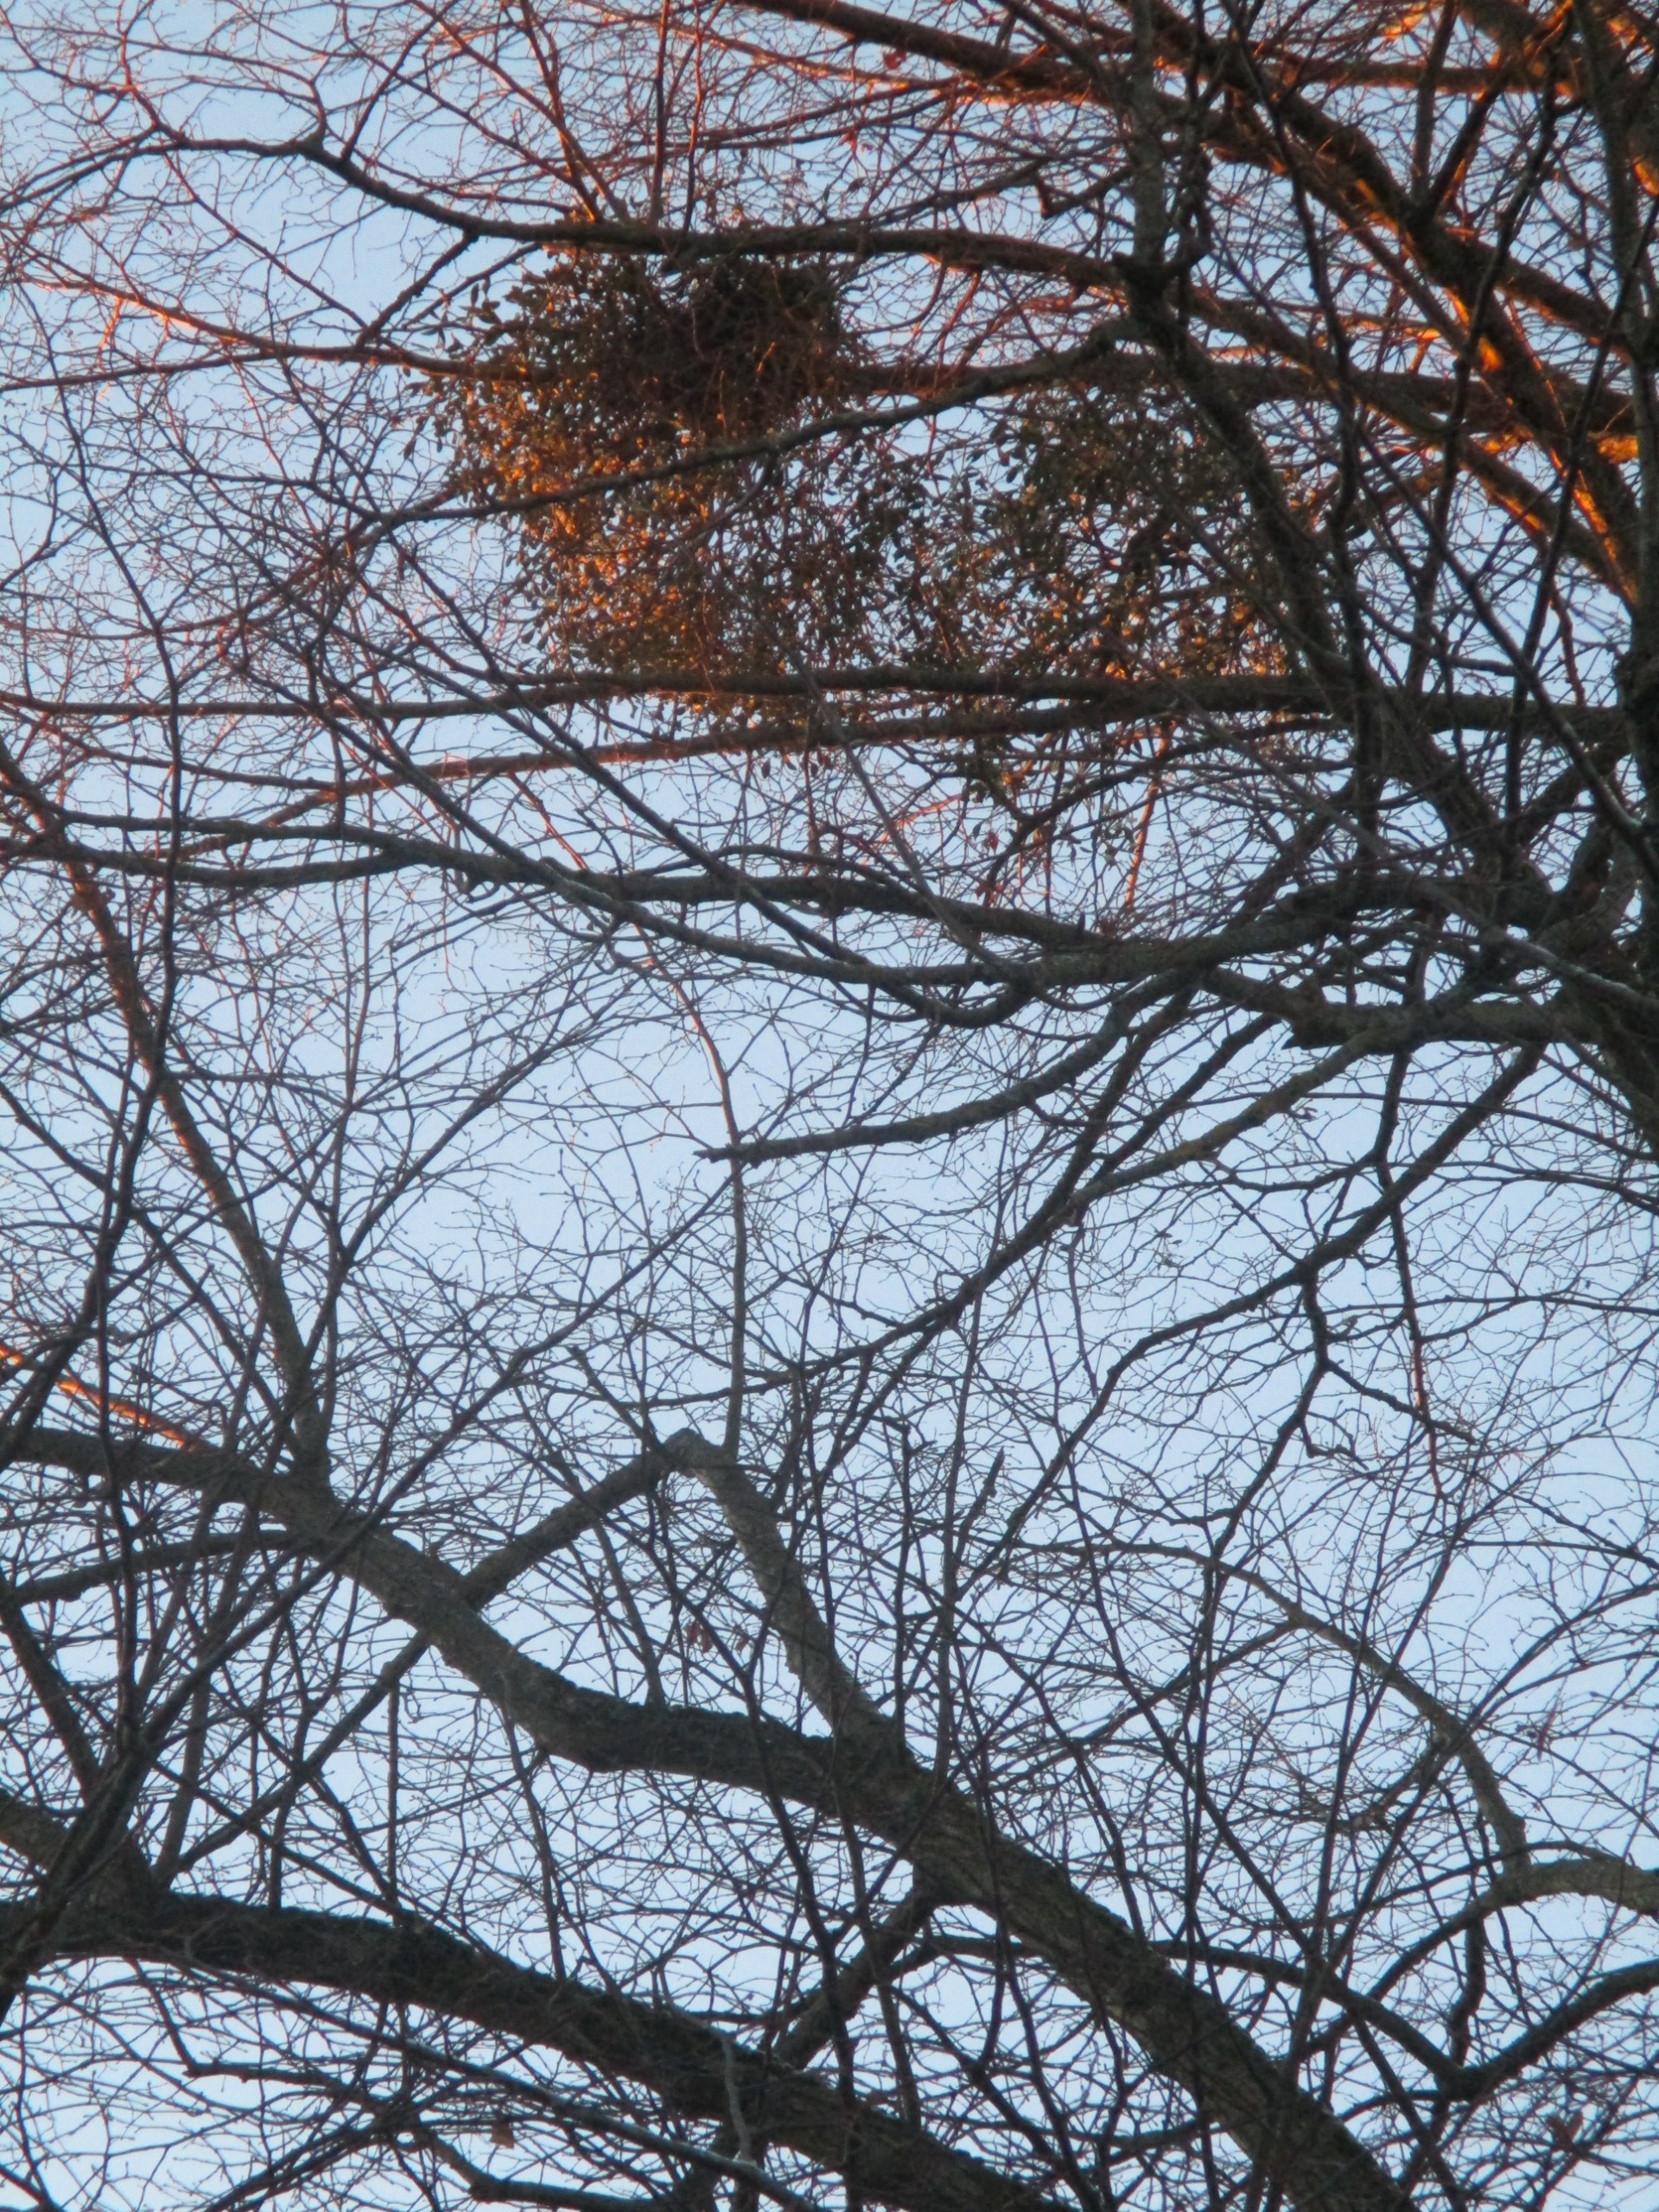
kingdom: Plantae
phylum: Tracheophyta
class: Magnoliopsida
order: Santalales
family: Viscaceae
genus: Viscum
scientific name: Viscum album
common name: Mistelten
